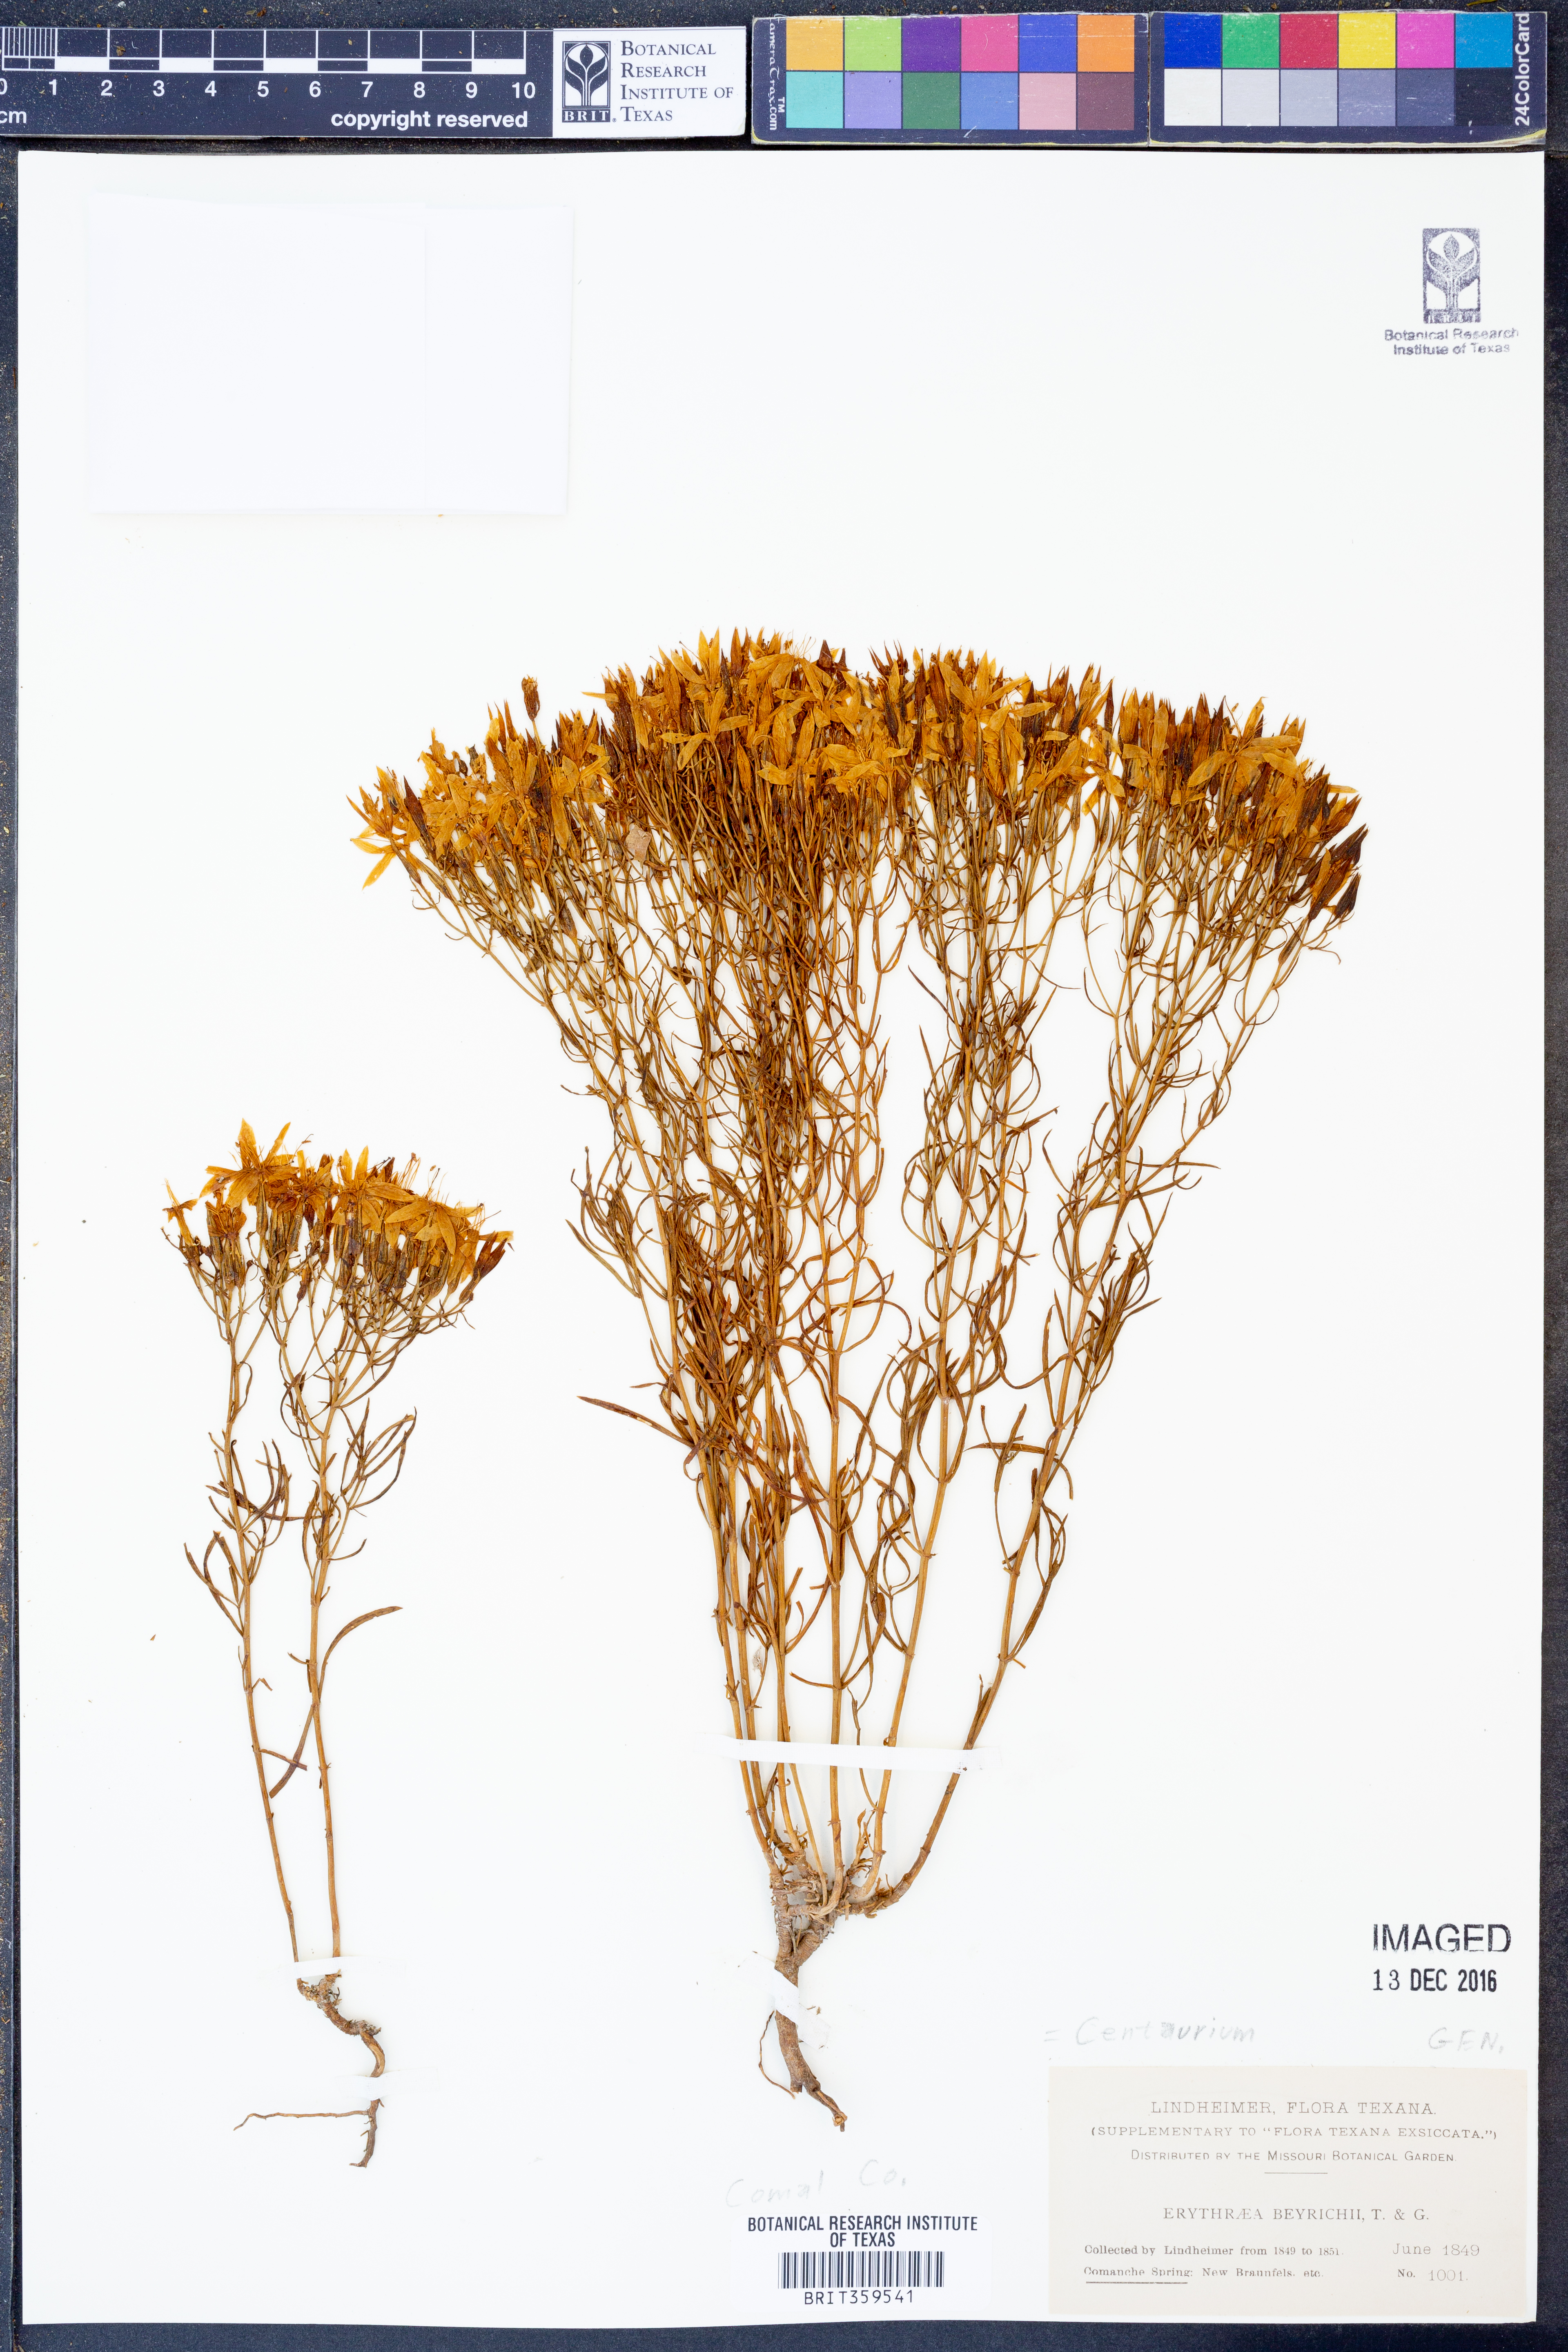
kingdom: Plantae
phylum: Tracheophyta
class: Magnoliopsida
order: Gentianales
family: Gentianaceae
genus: Zeltnera
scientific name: Zeltnera beyrichii
